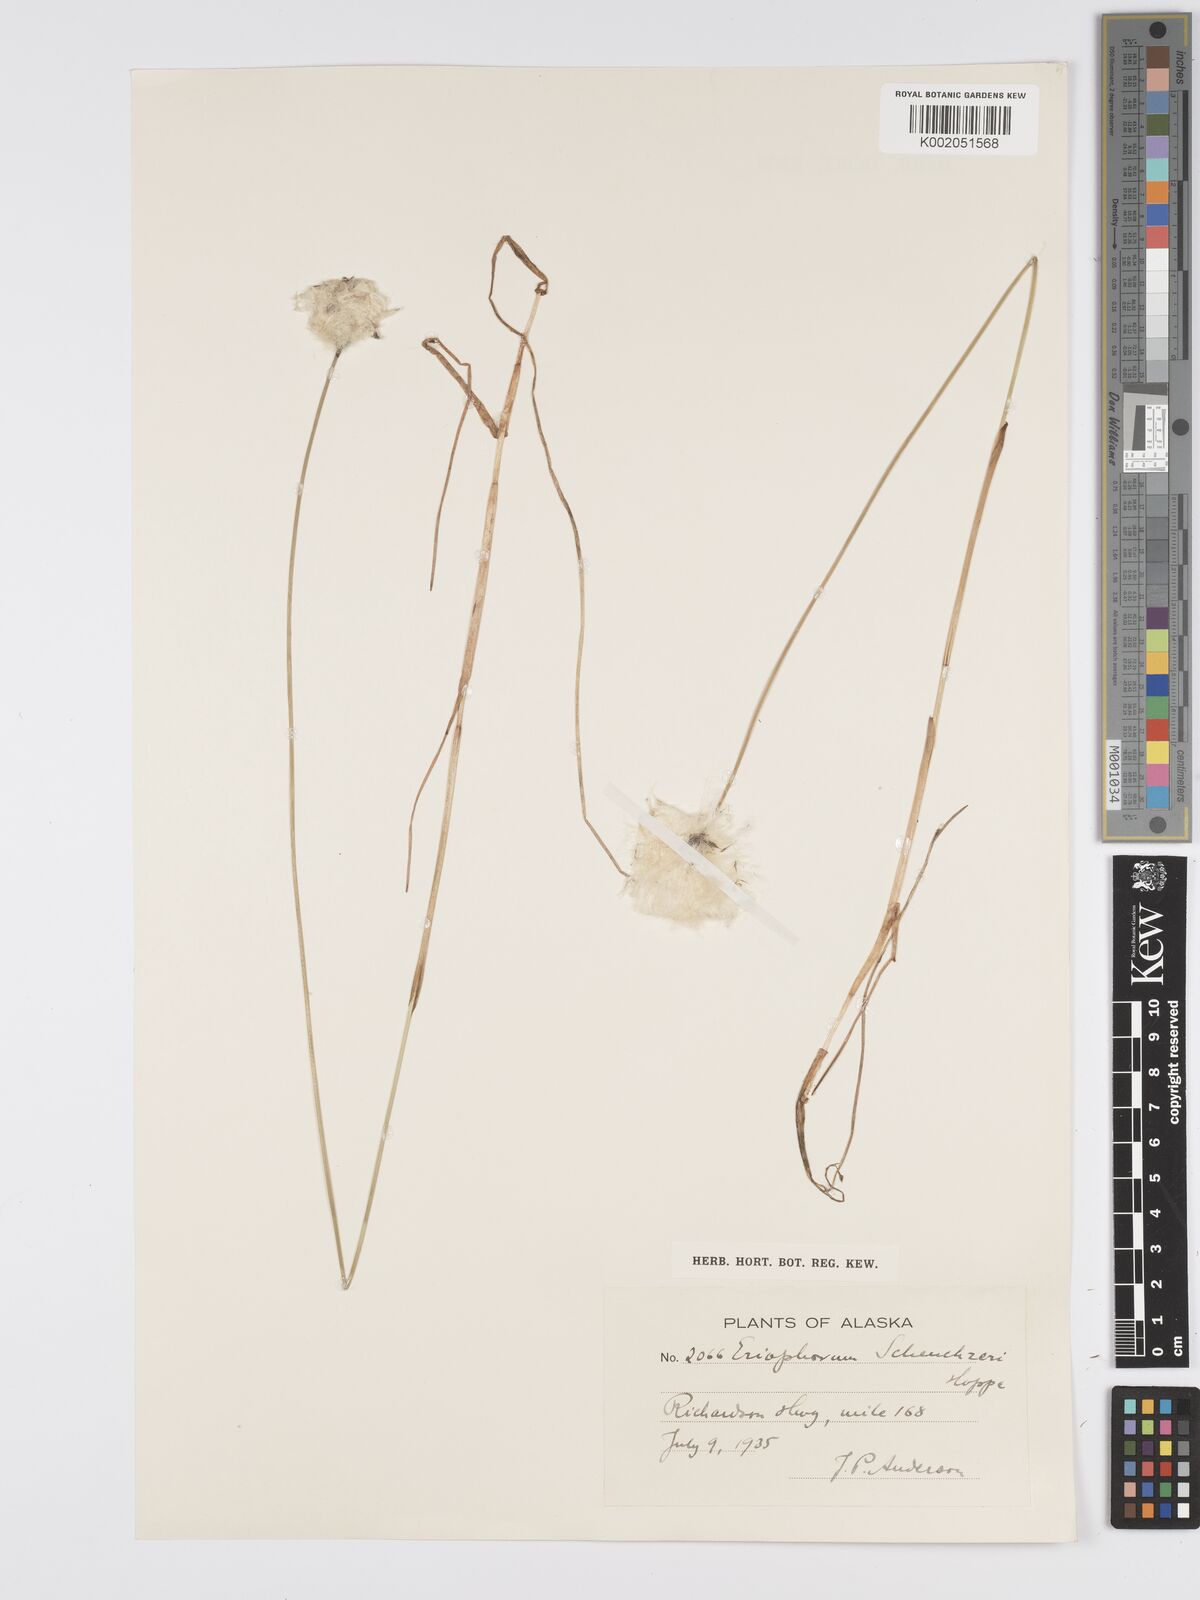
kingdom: Plantae
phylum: Tracheophyta
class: Liliopsida
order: Poales
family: Cyperaceae
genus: Eriophorum
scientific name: Eriophorum scheuchzeri
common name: Scheuchzer's cottongrass
